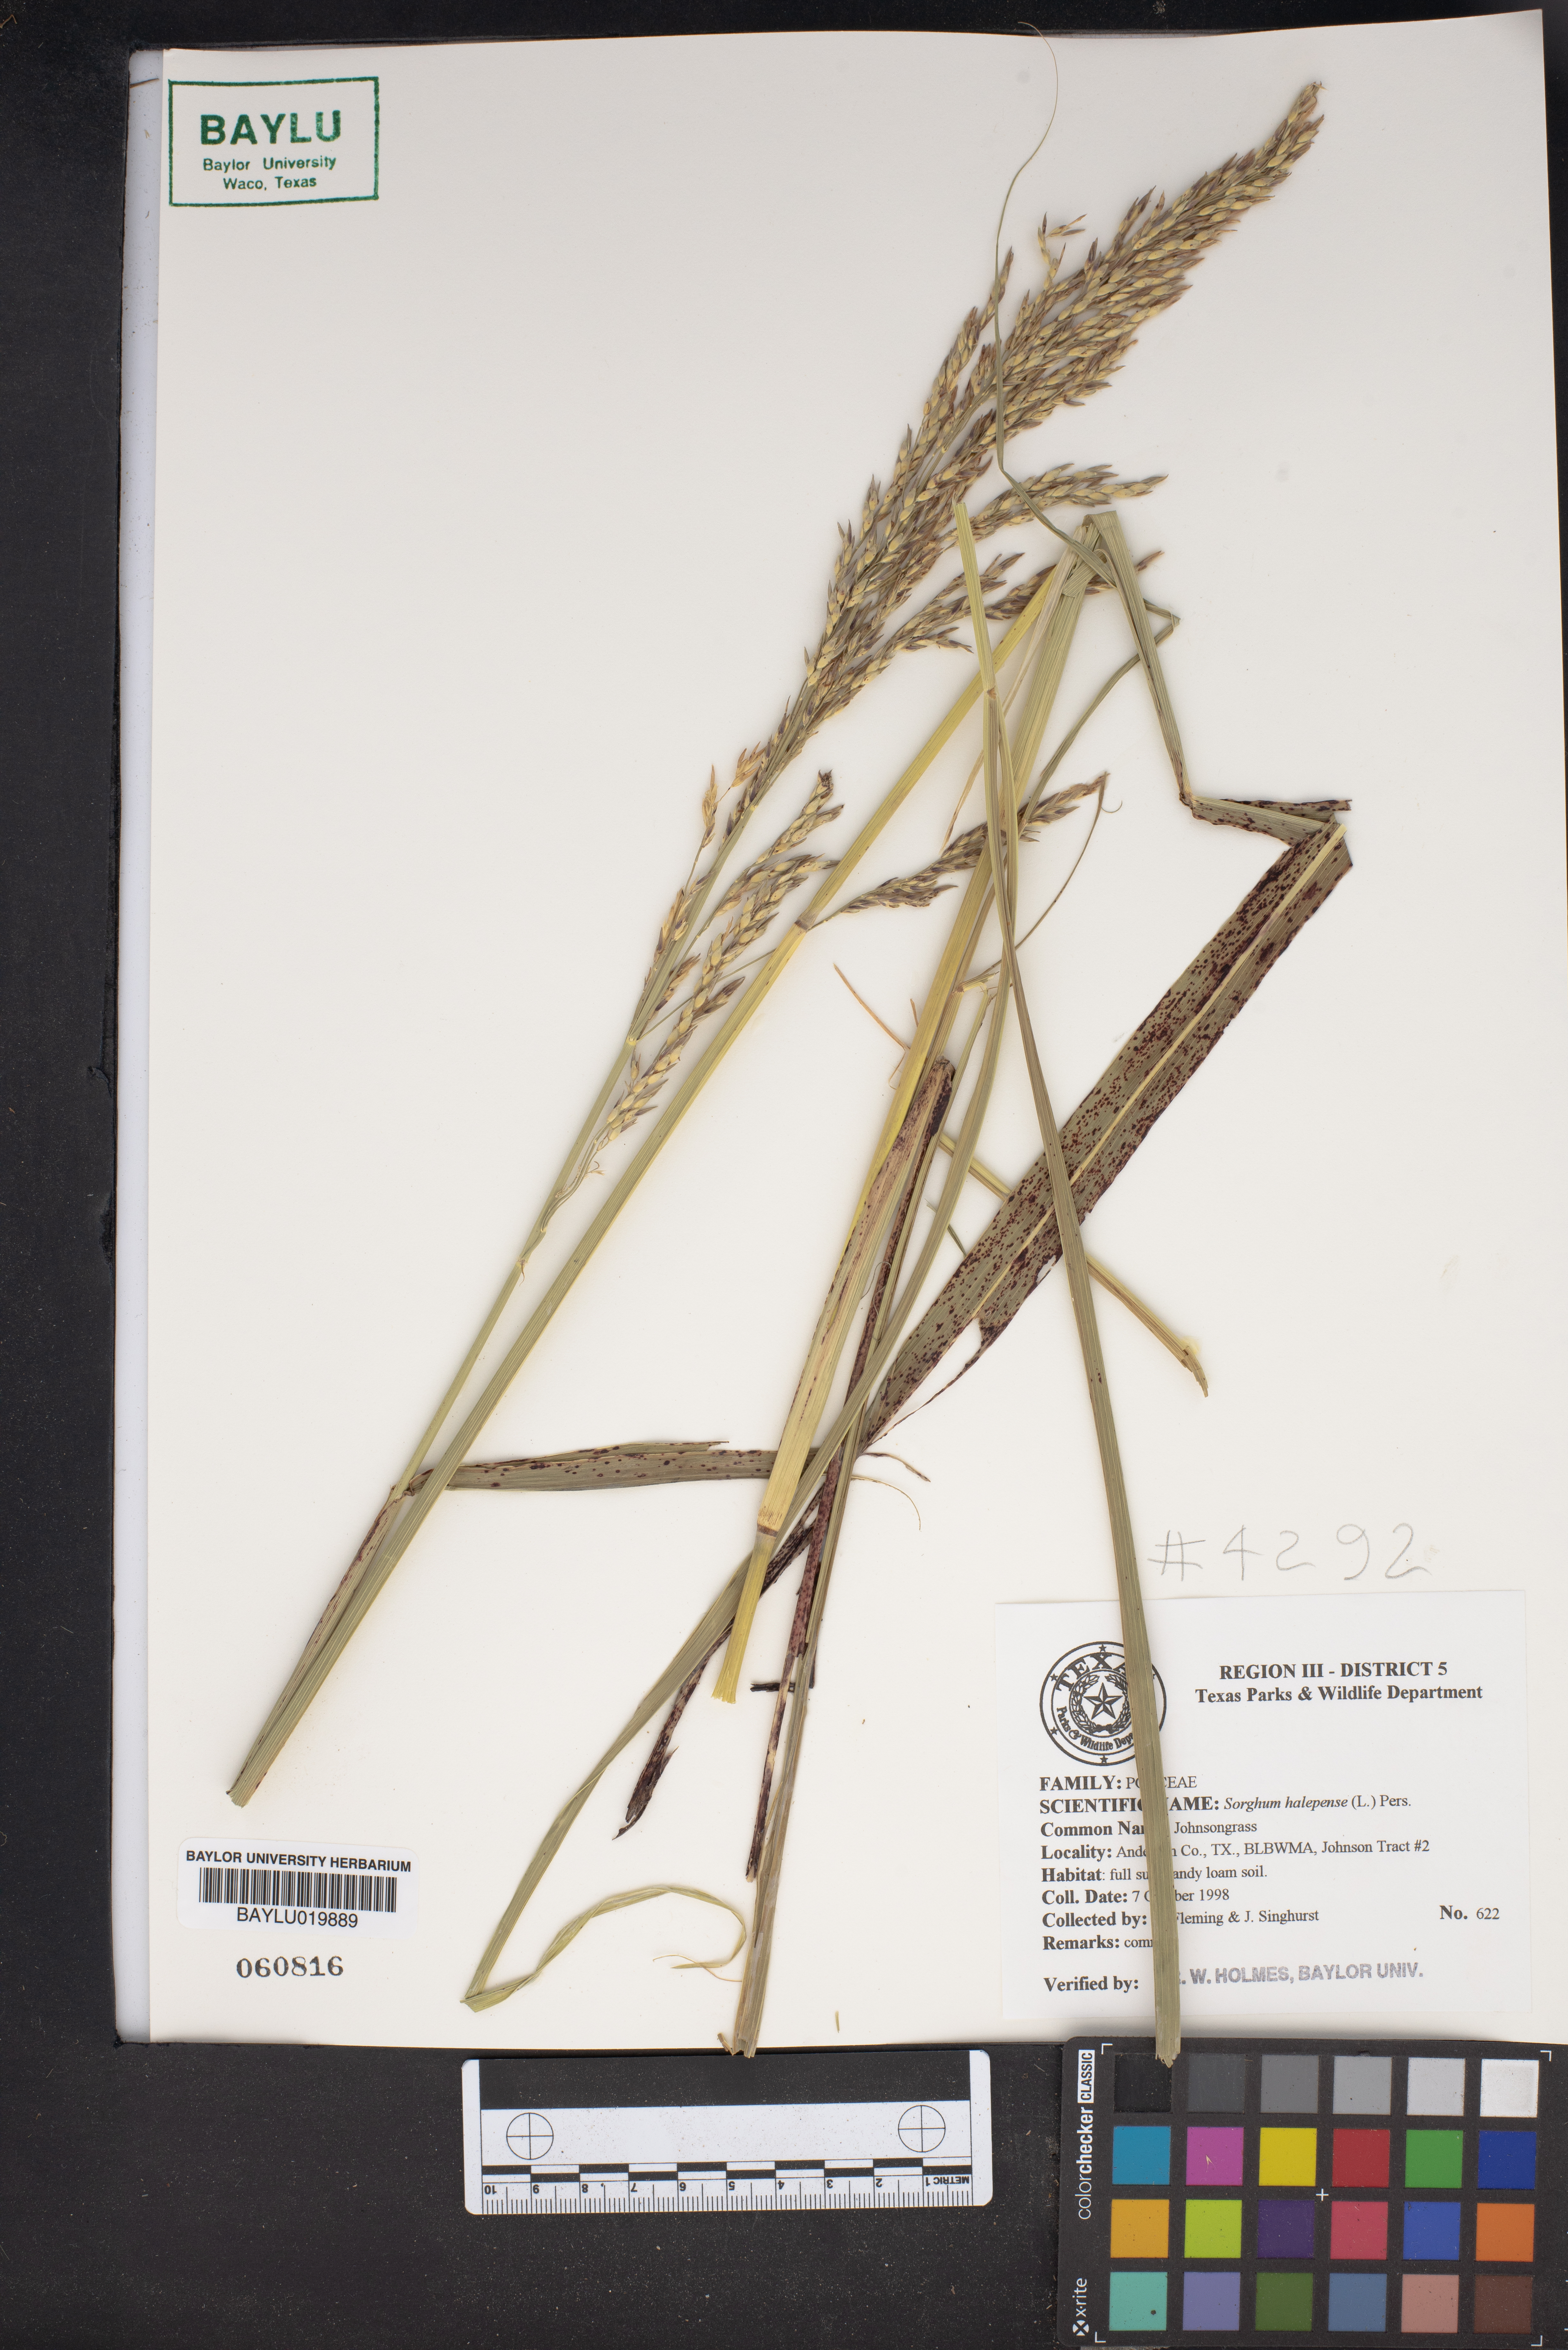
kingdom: Plantae
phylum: Tracheophyta
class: Liliopsida
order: Poales
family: Poaceae
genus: Sorghum
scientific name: Sorghum halepense
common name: Johnson-grass
